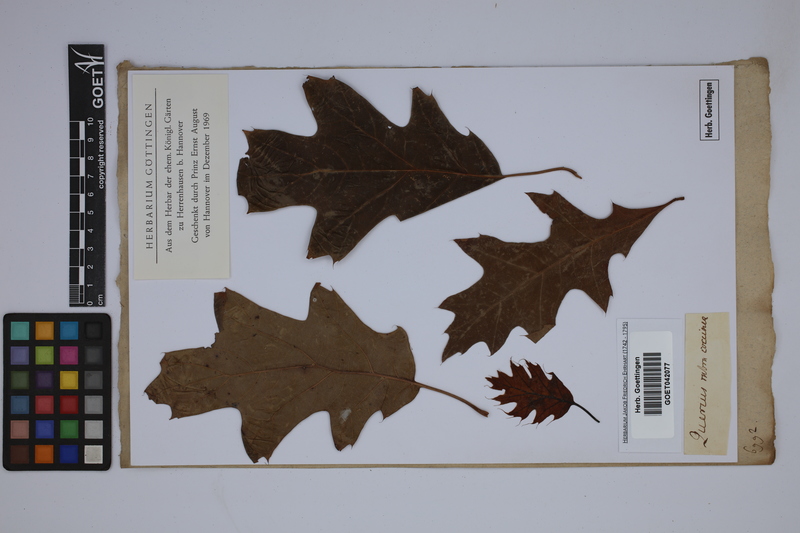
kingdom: Plantae
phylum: Tracheophyta
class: Magnoliopsida
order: Fagales
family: Fagaceae
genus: Quercus
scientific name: Quercus rubra
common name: Red oak
